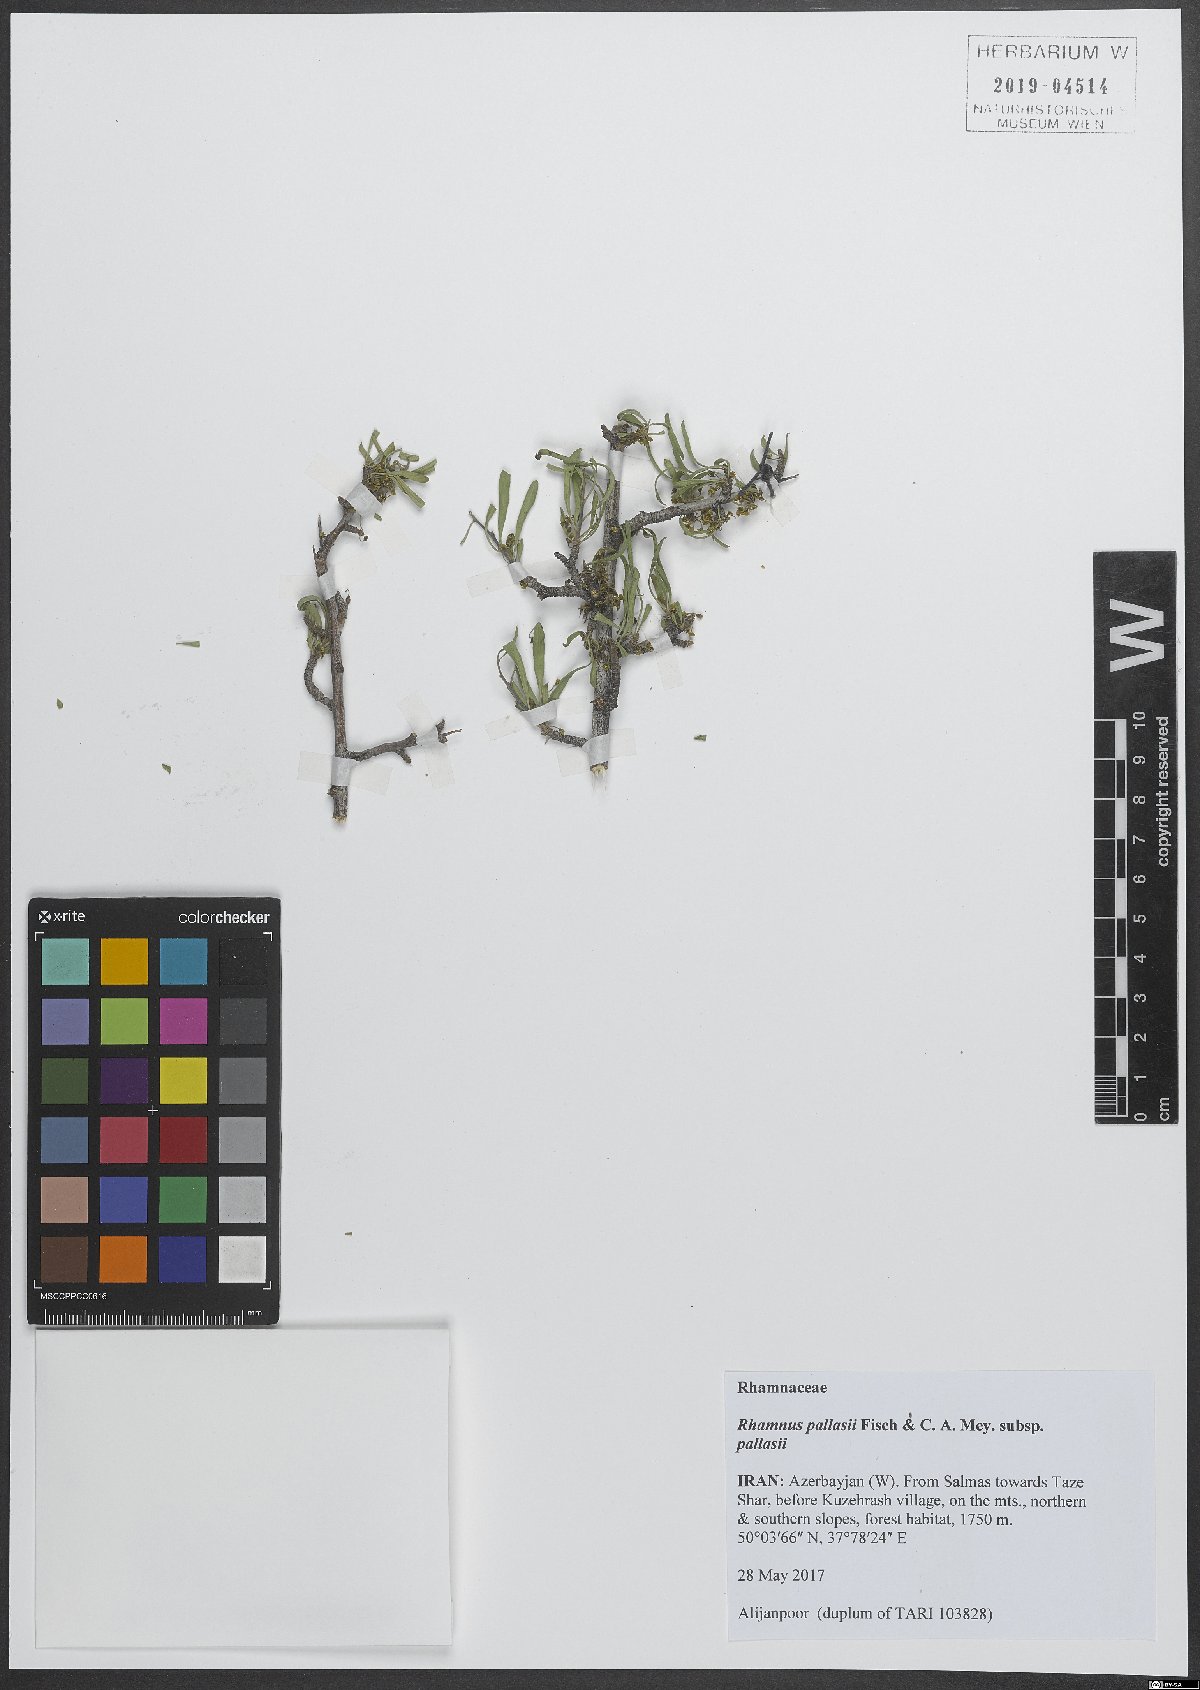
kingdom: Plantae
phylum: Tracheophyta
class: Magnoliopsida
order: Rosales
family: Rhamnaceae
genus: Rhamnus
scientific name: Rhamnus erythroxyloides
